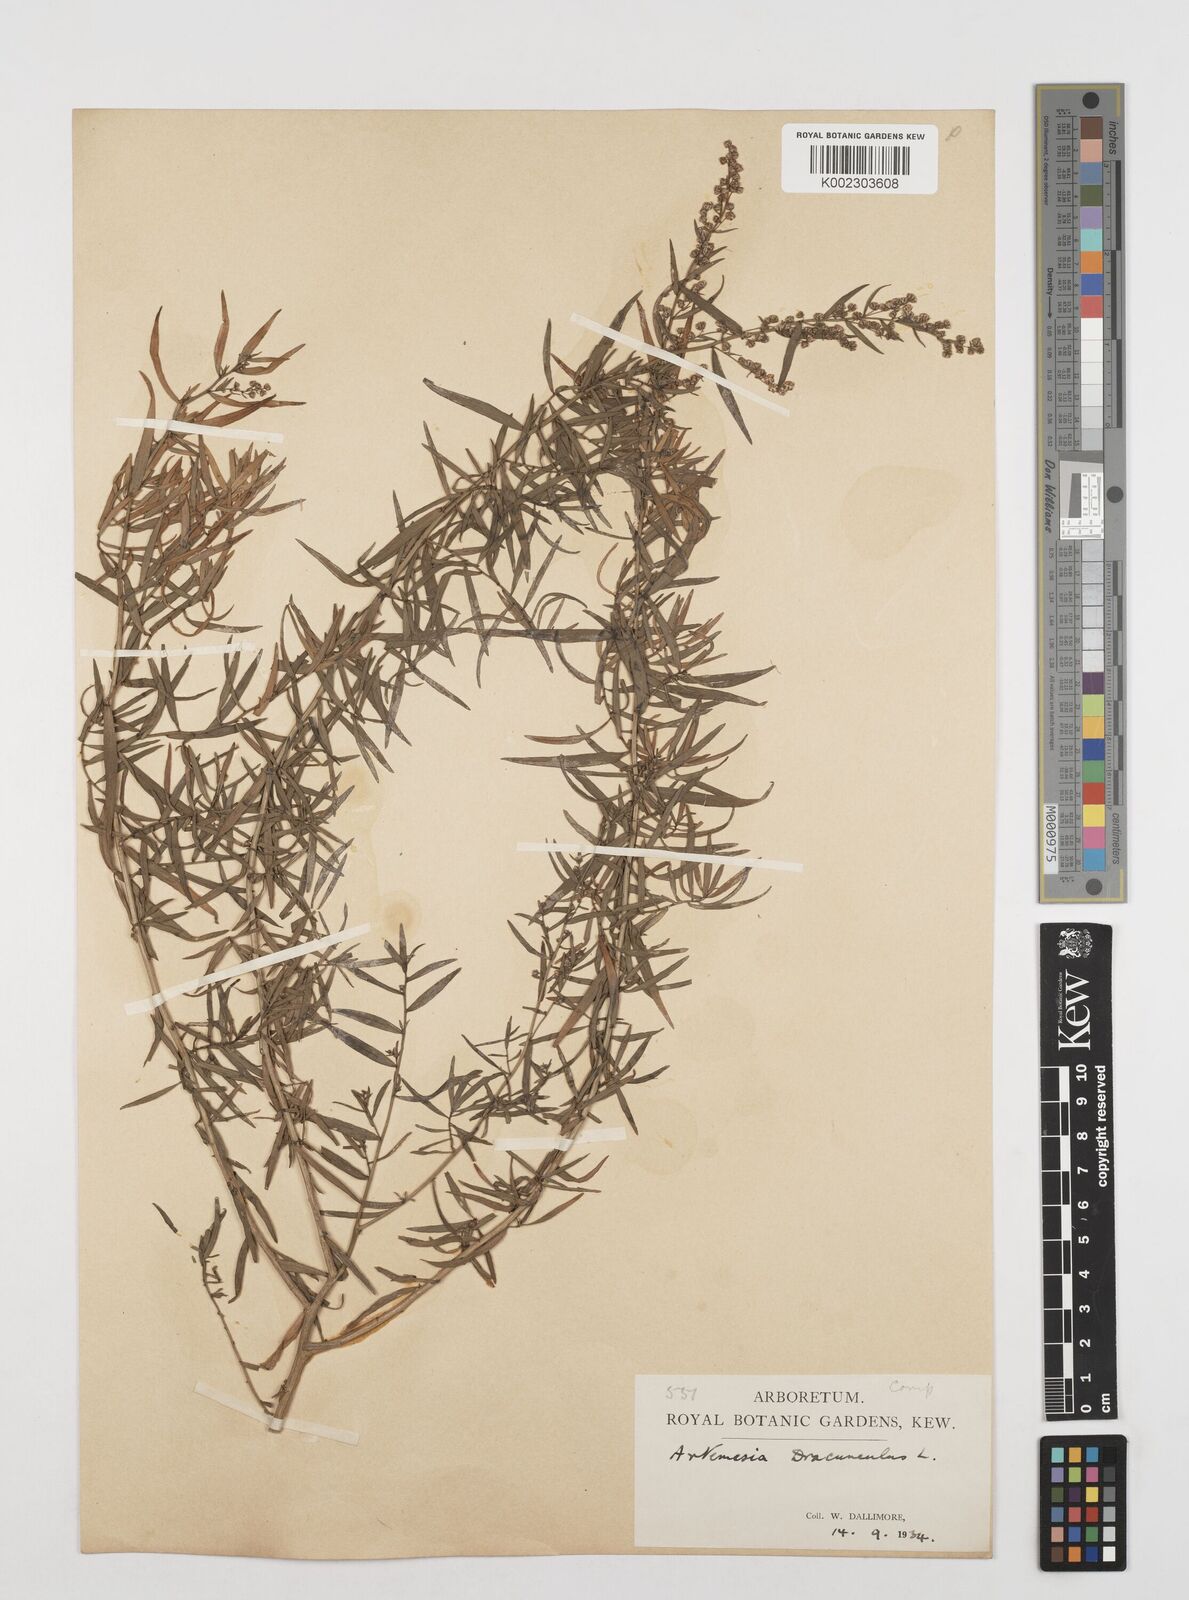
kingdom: Plantae
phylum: Tracheophyta
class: Magnoliopsida
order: Asterales
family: Asteraceae
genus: Artemisia
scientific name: Artemisia dracunculus
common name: Tarragon
